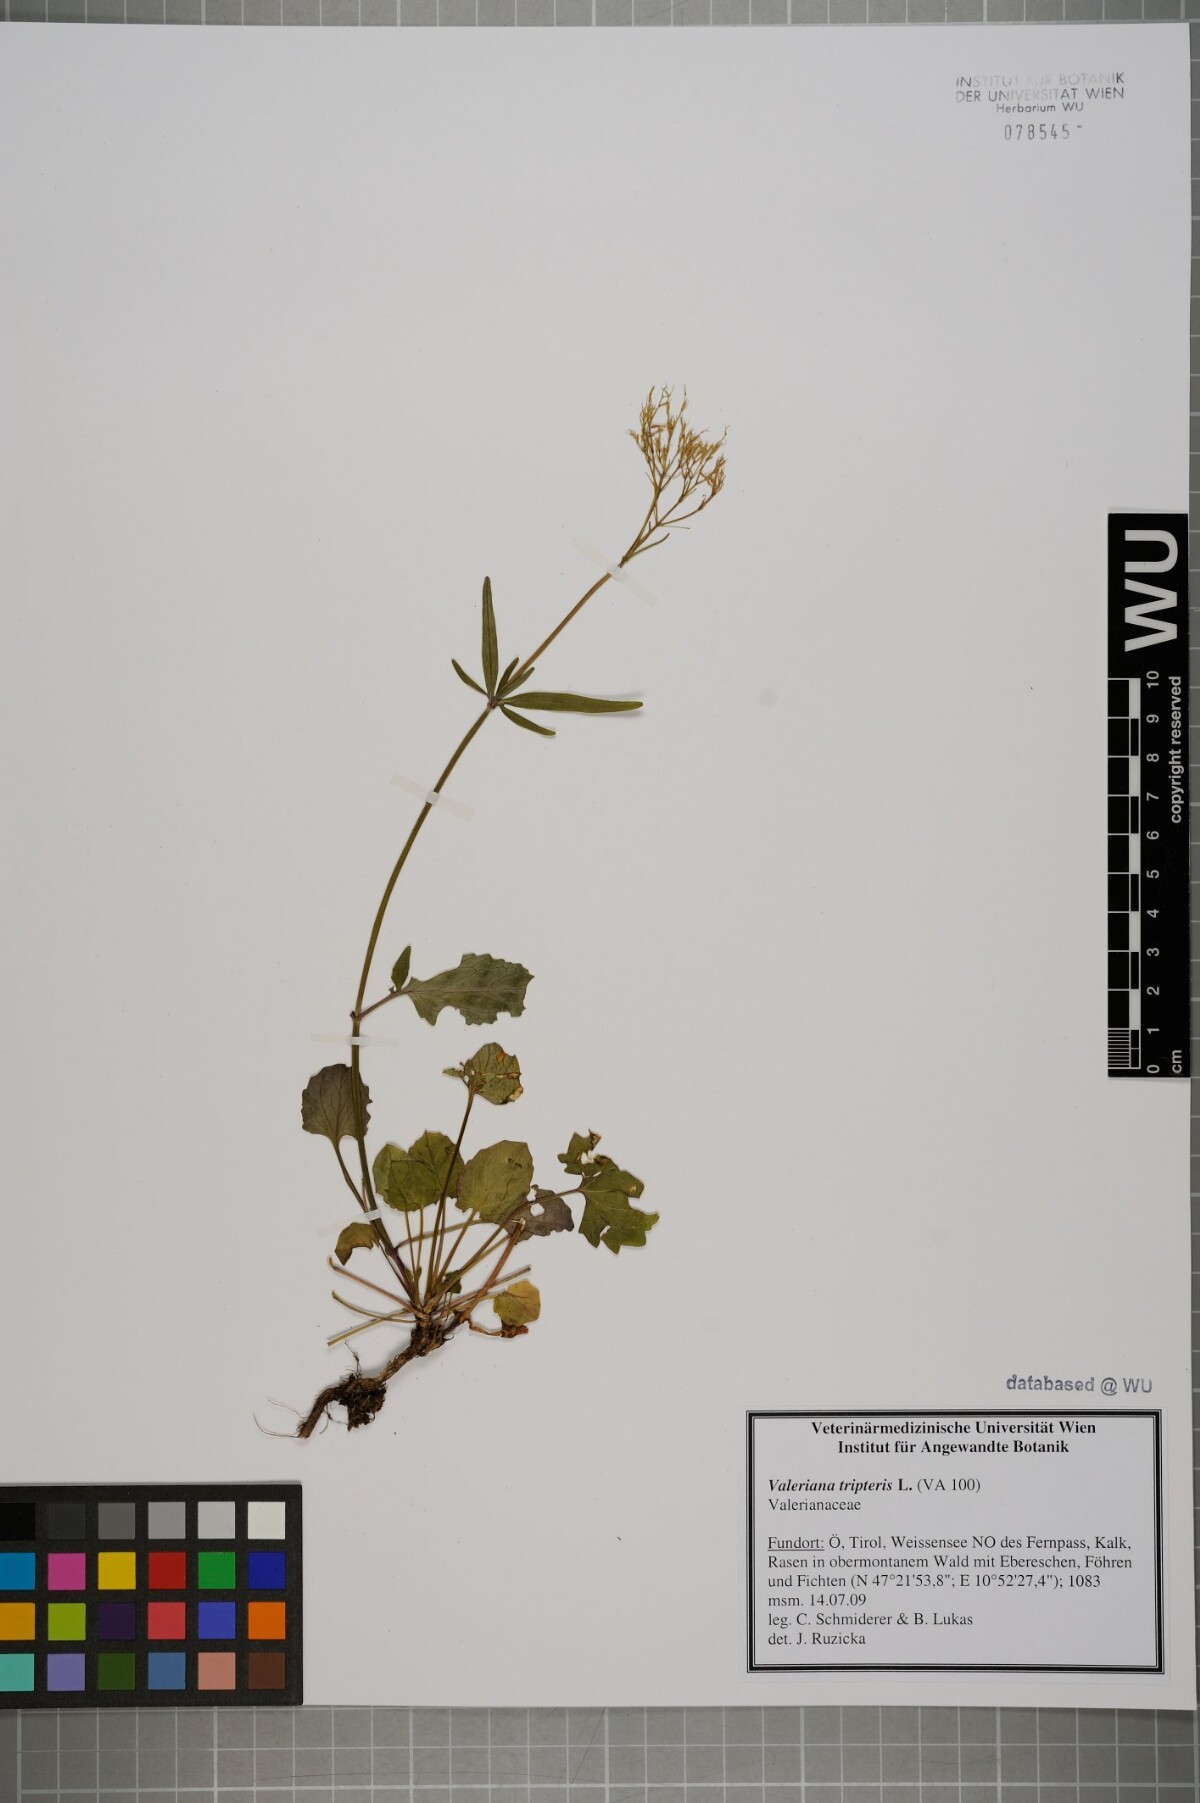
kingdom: Plantae
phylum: Tracheophyta
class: Magnoliopsida
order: Dipsacales
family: Caprifoliaceae
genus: Valeriana
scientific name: Valeriana tripteris
